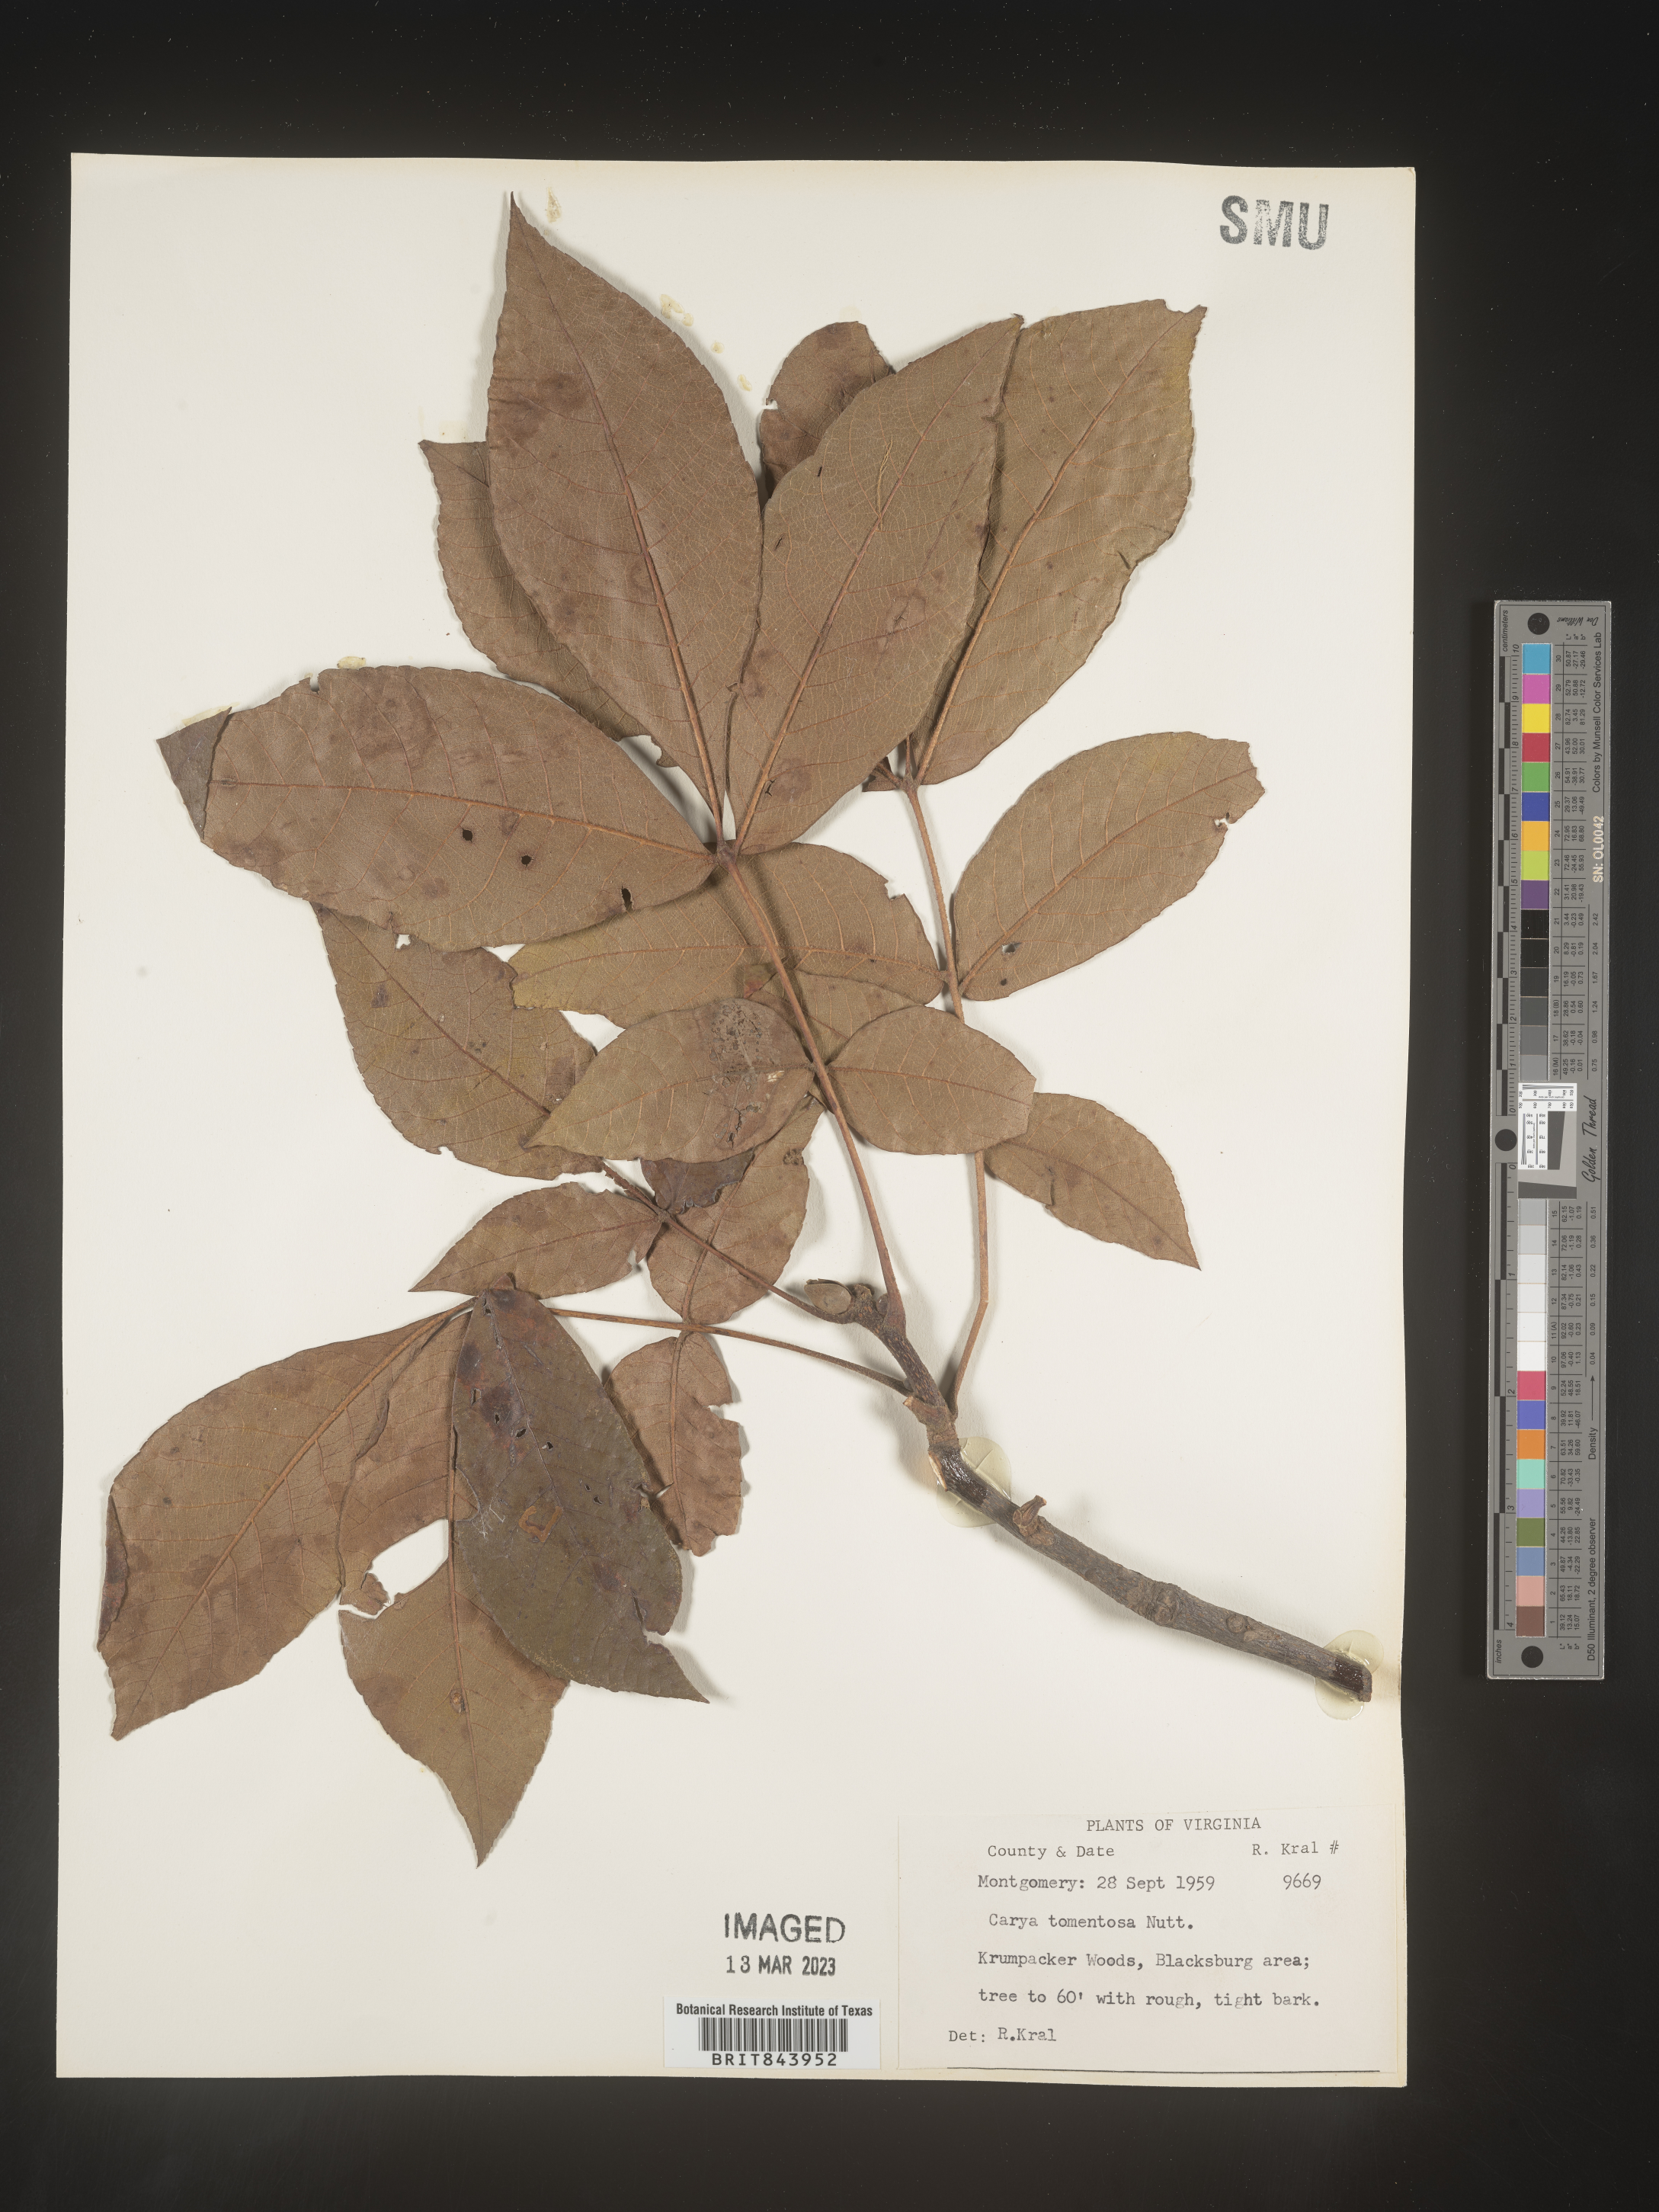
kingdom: Plantae
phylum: Tracheophyta
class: Magnoliopsida
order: Fagales
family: Juglandaceae
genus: Carya
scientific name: Carya alba
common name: Mockernut hickory
